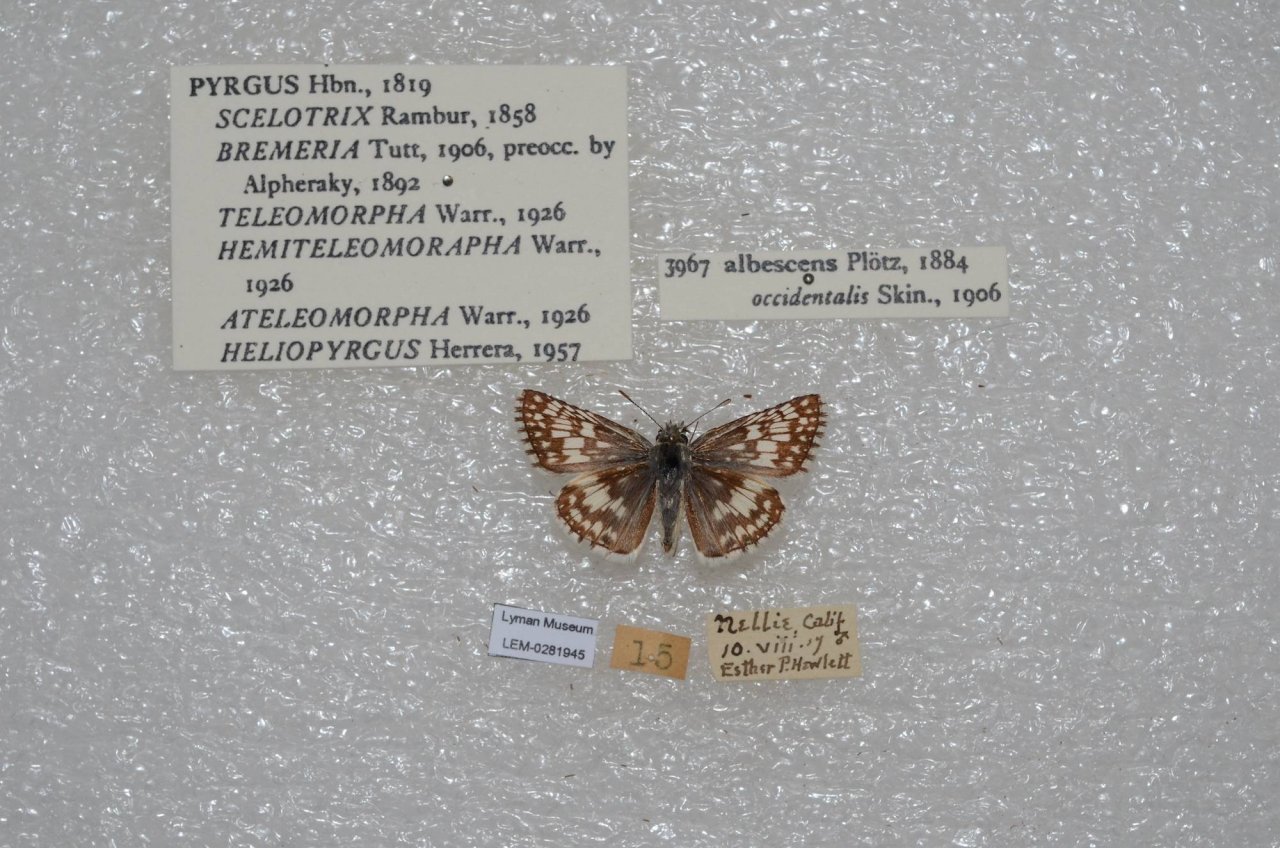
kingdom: Animalia
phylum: Arthropoda
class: Insecta
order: Lepidoptera
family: Hesperiidae
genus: Pyrgus
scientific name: Pyrgus communis
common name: White Checkered-Skipper
